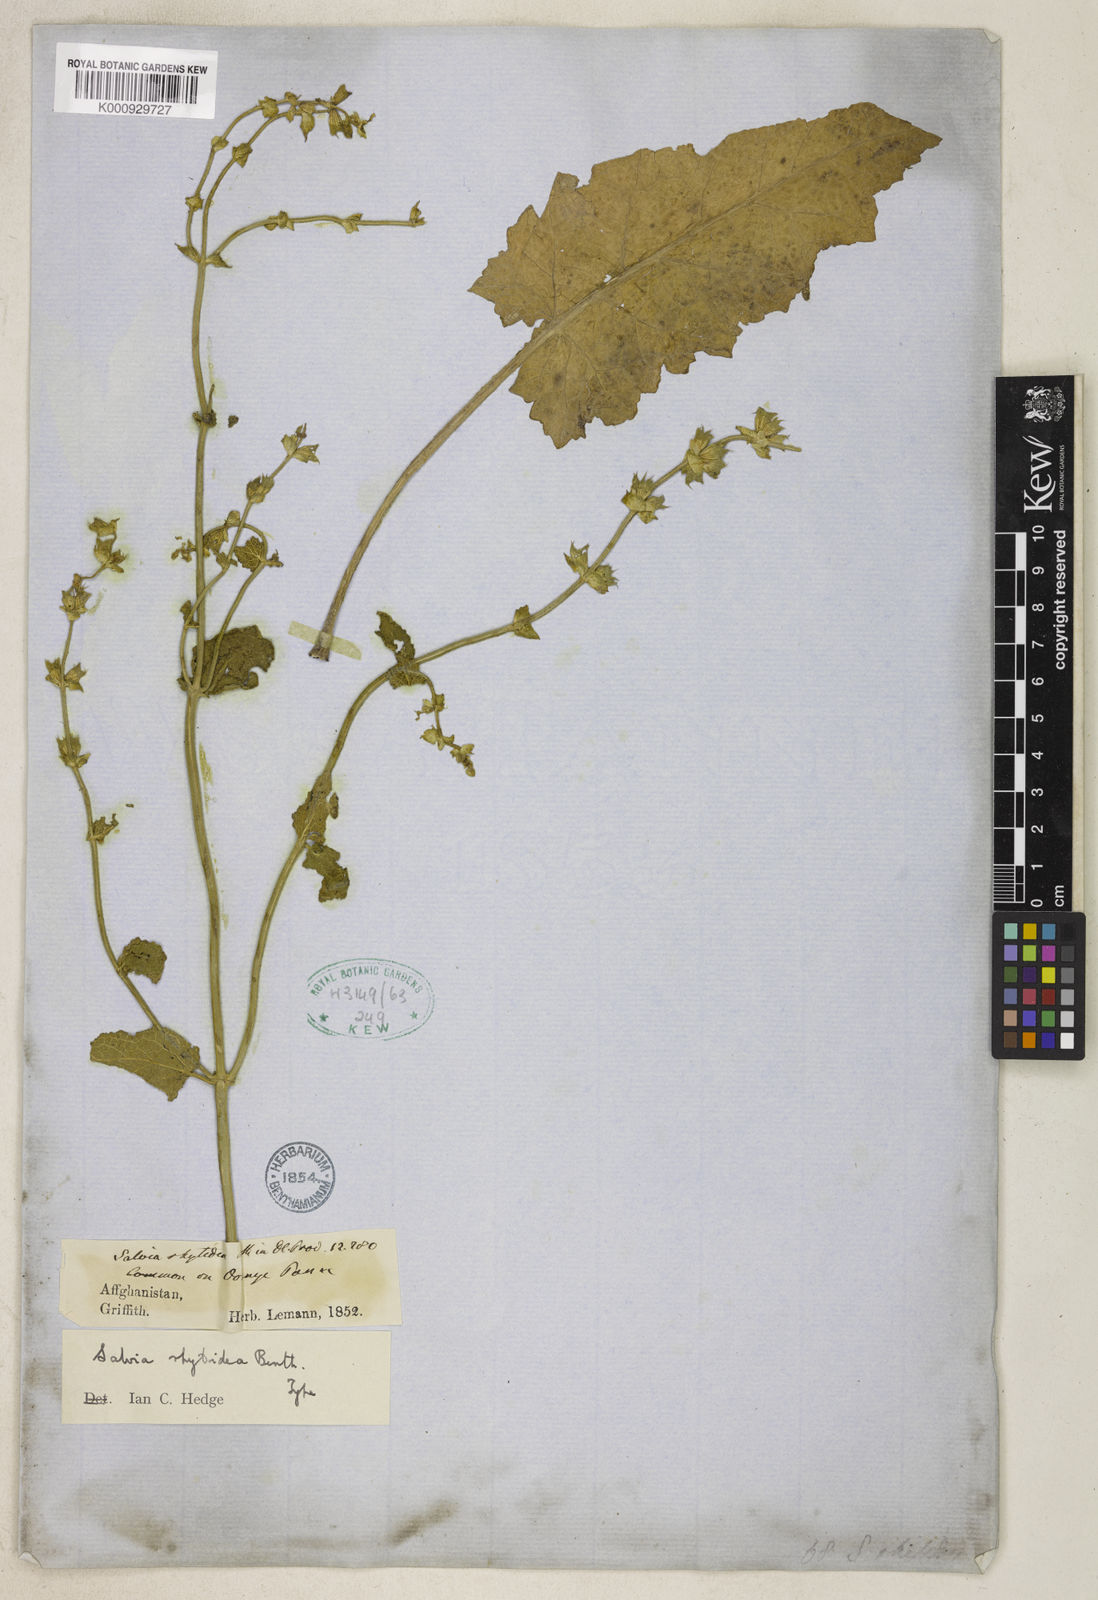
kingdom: Plantae
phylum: Tracheophyta
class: Magnoliopsida
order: Lamiales
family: Lamiaceae
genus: Salvia
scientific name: Salvia rhytidea
